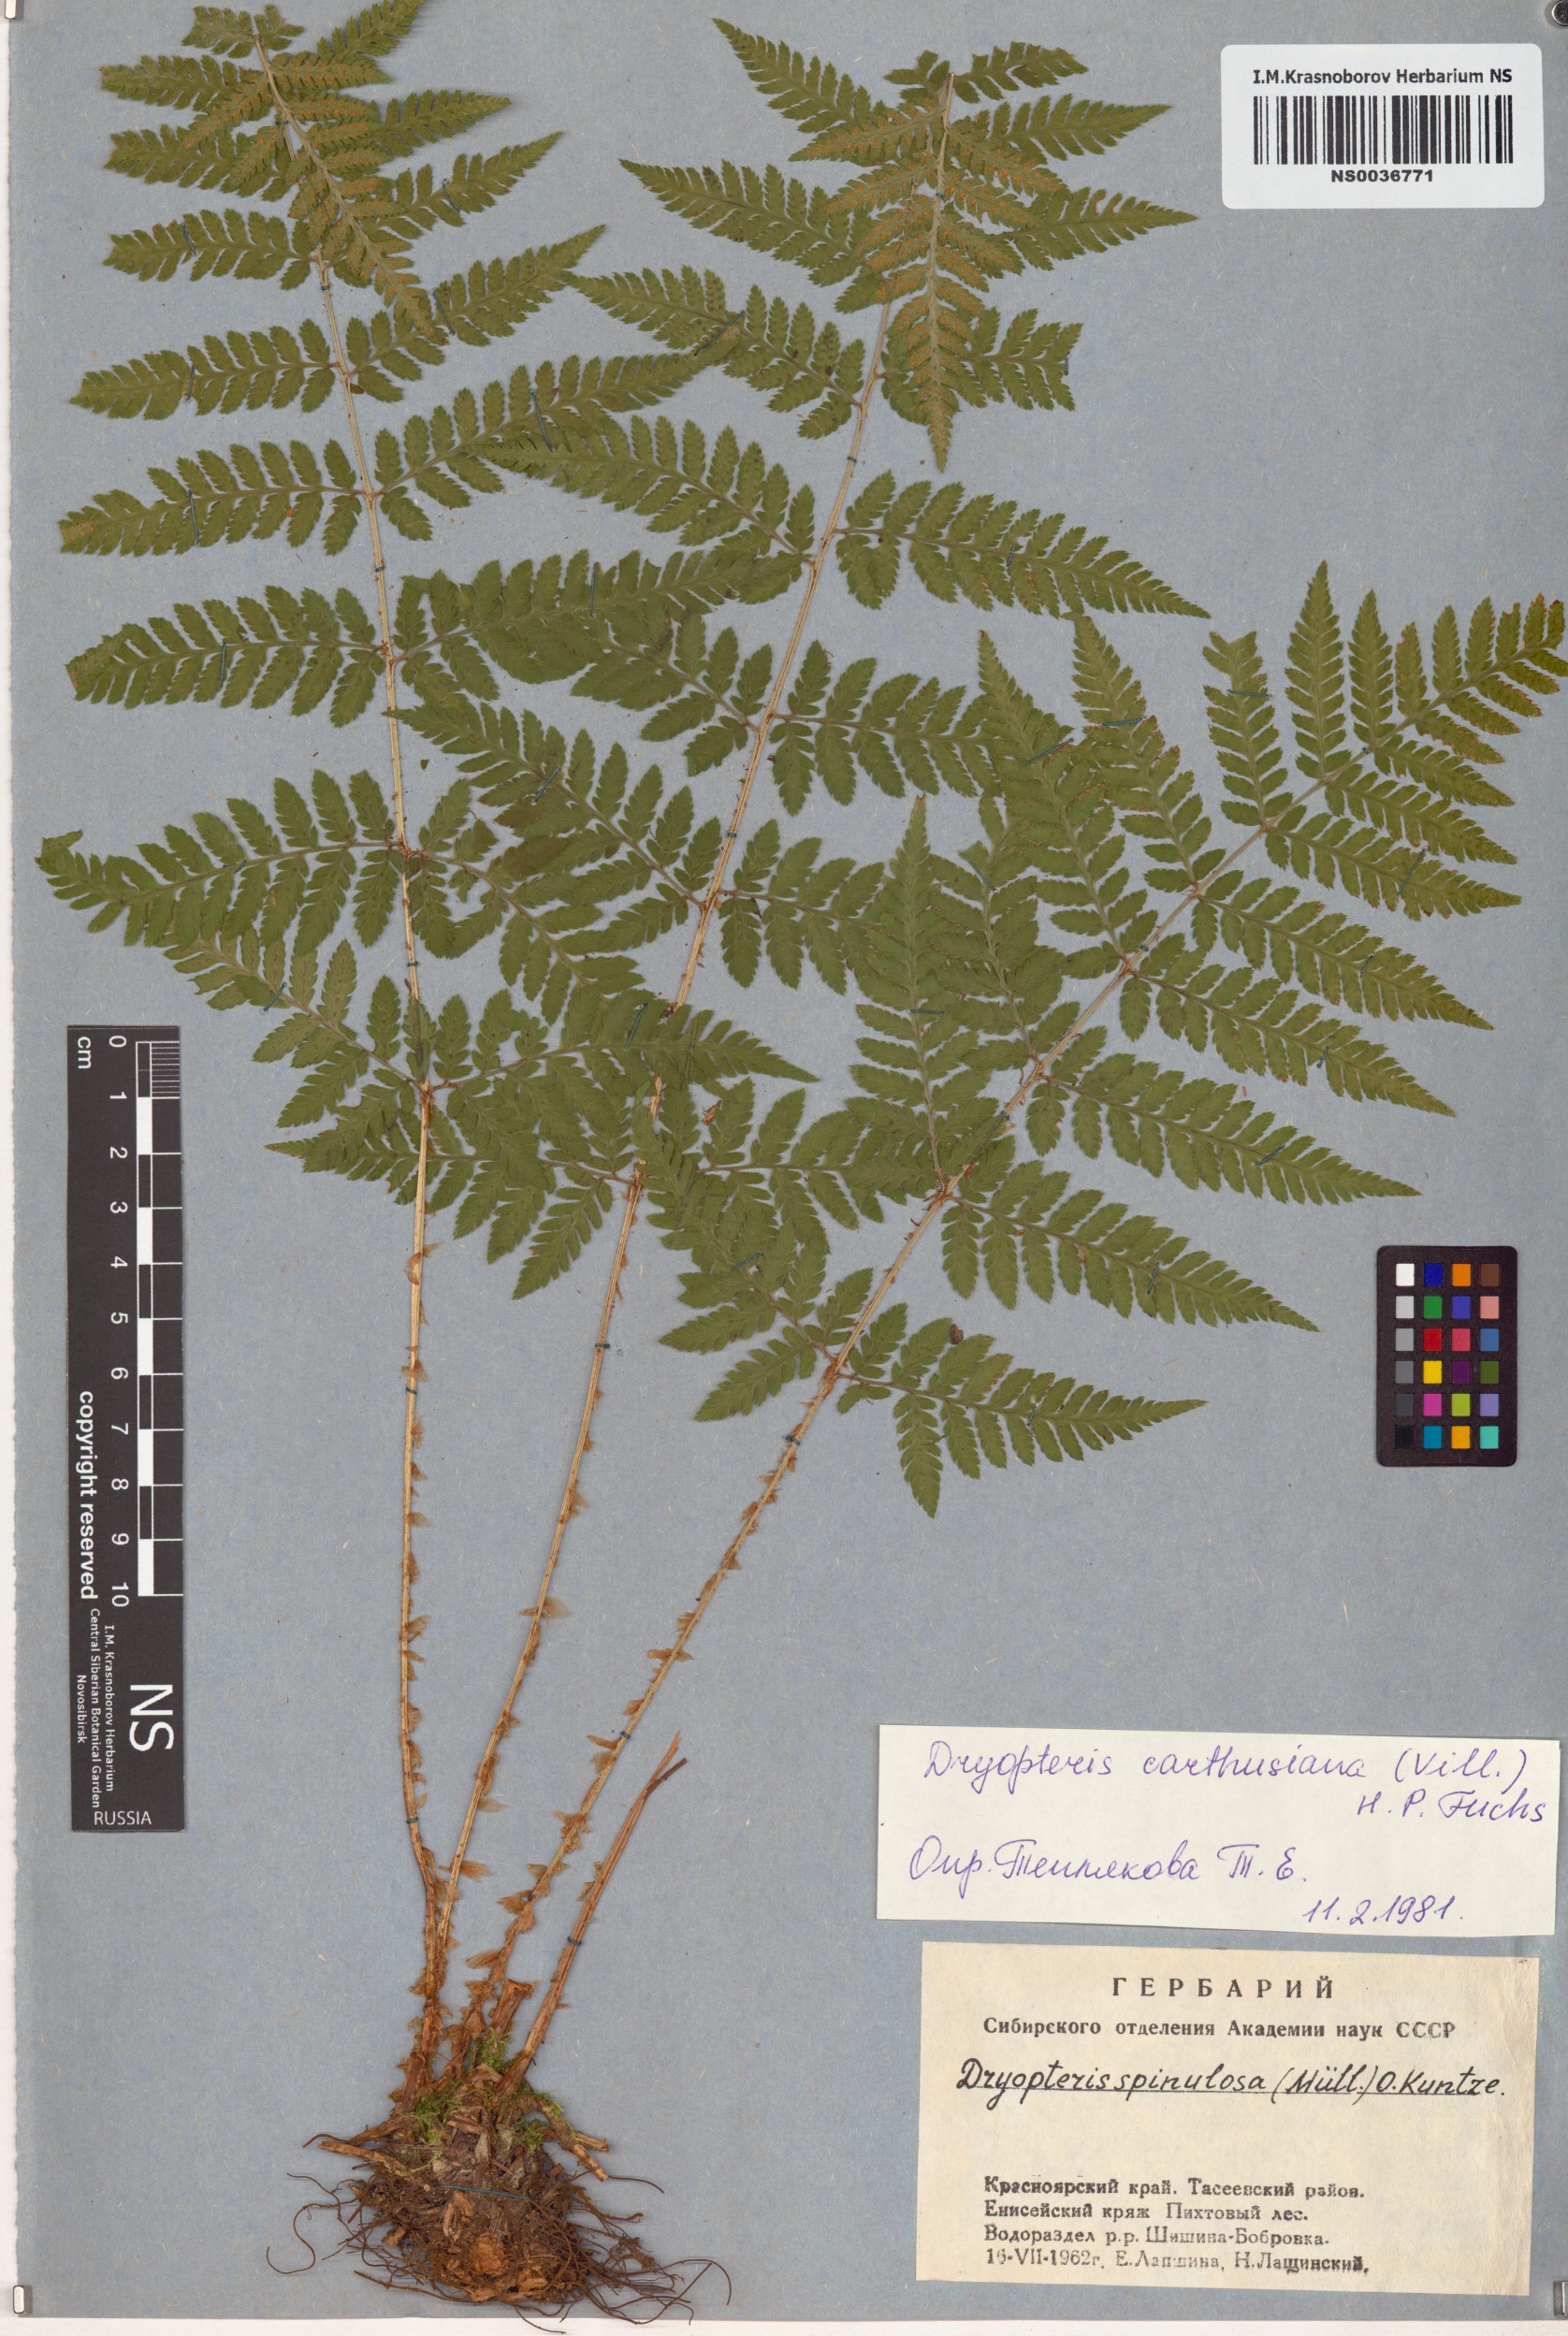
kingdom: Plantae
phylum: Tracheophyta
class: Polypodiopsida
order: Polypodiales
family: Dryopteridaceae
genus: Dryopteris
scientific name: Dryopteris carthusiana
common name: Narrow buckler-fern
